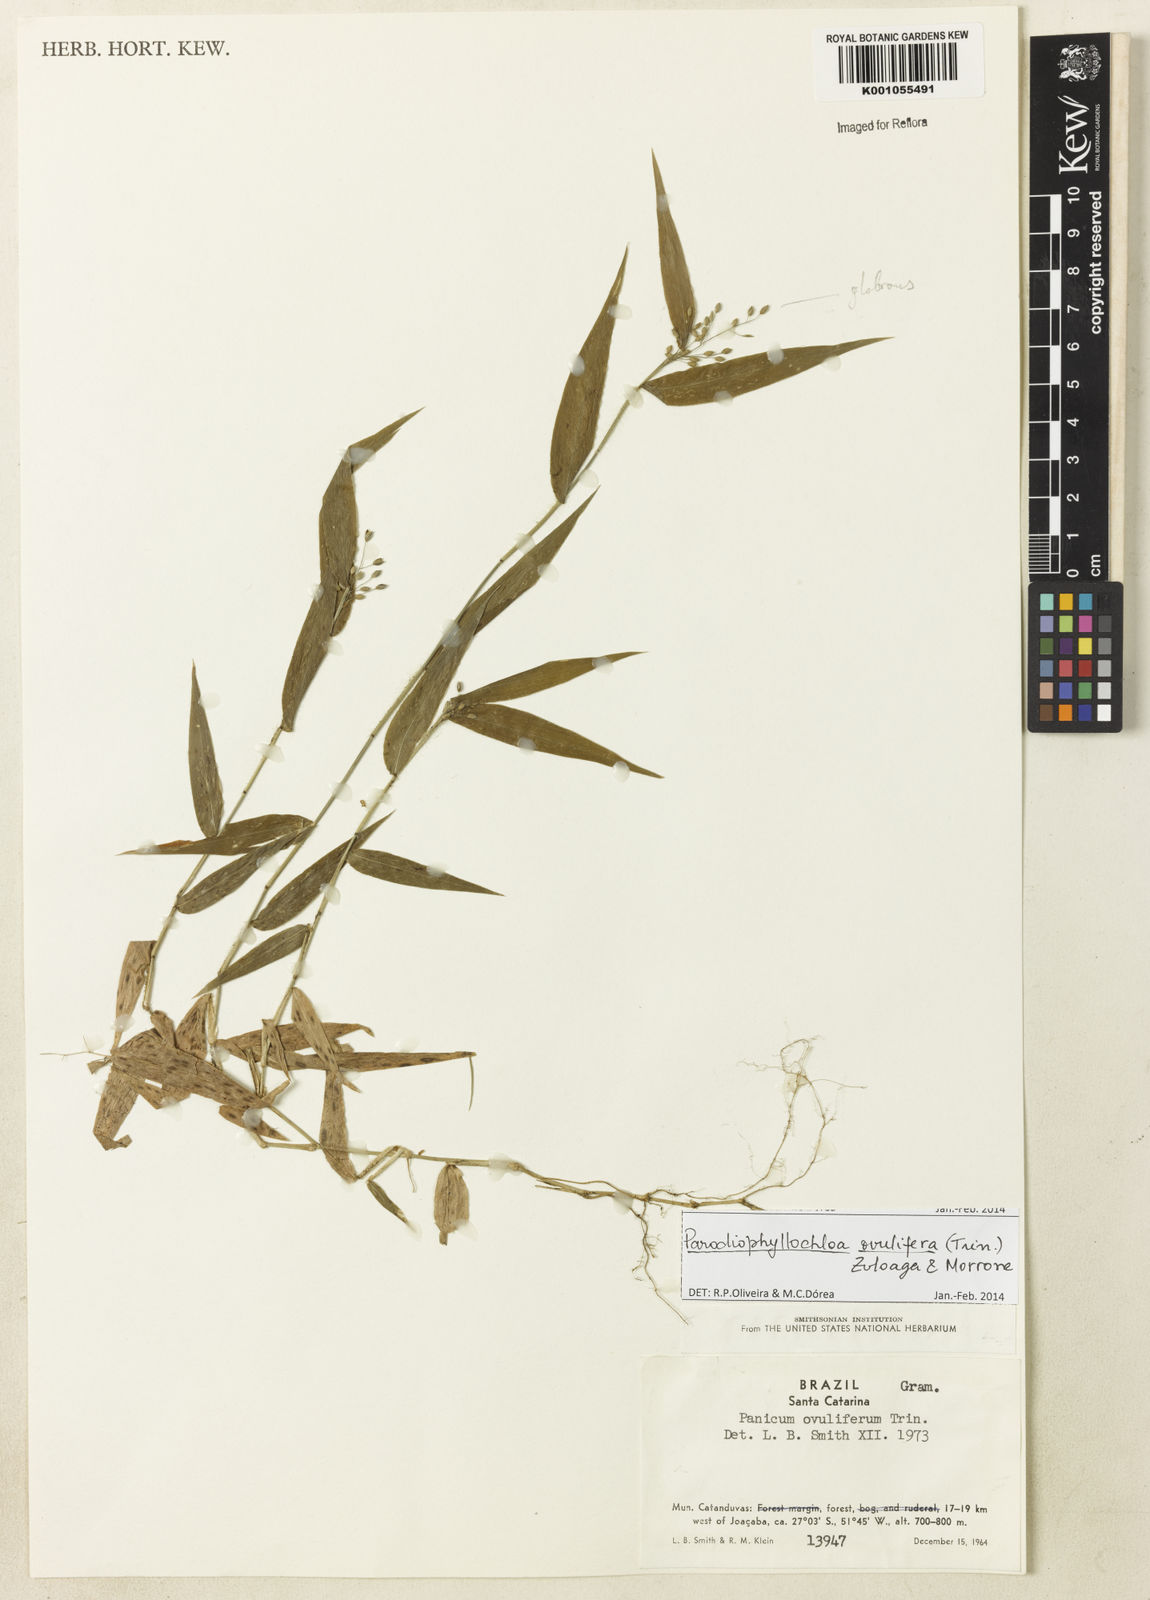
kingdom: Plantae
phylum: Tracheophyta
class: Liliopsida
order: Poales
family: Poaceae
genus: Parodiophyllochloa
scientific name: Parodiophyllochloa ovulifera
